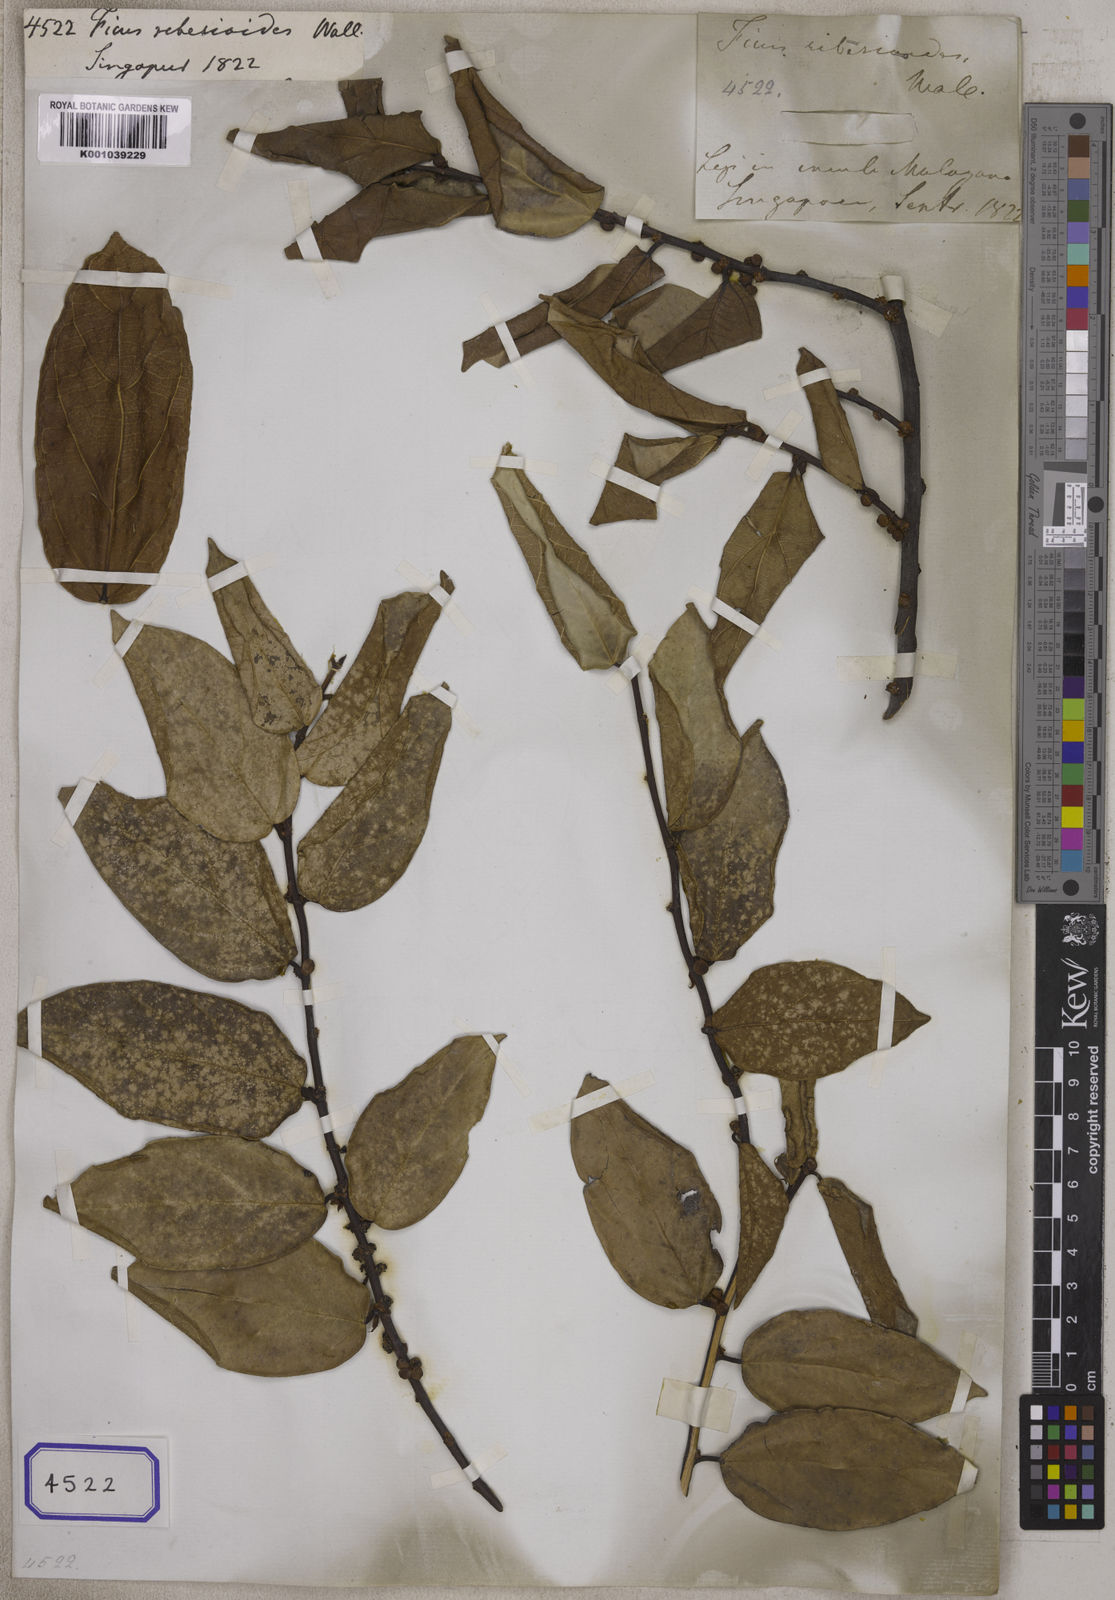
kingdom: Plantae
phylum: Tracheophyta
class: Magnoliopsida
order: Rosales
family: Moraceae
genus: Ficus
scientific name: Ficus
